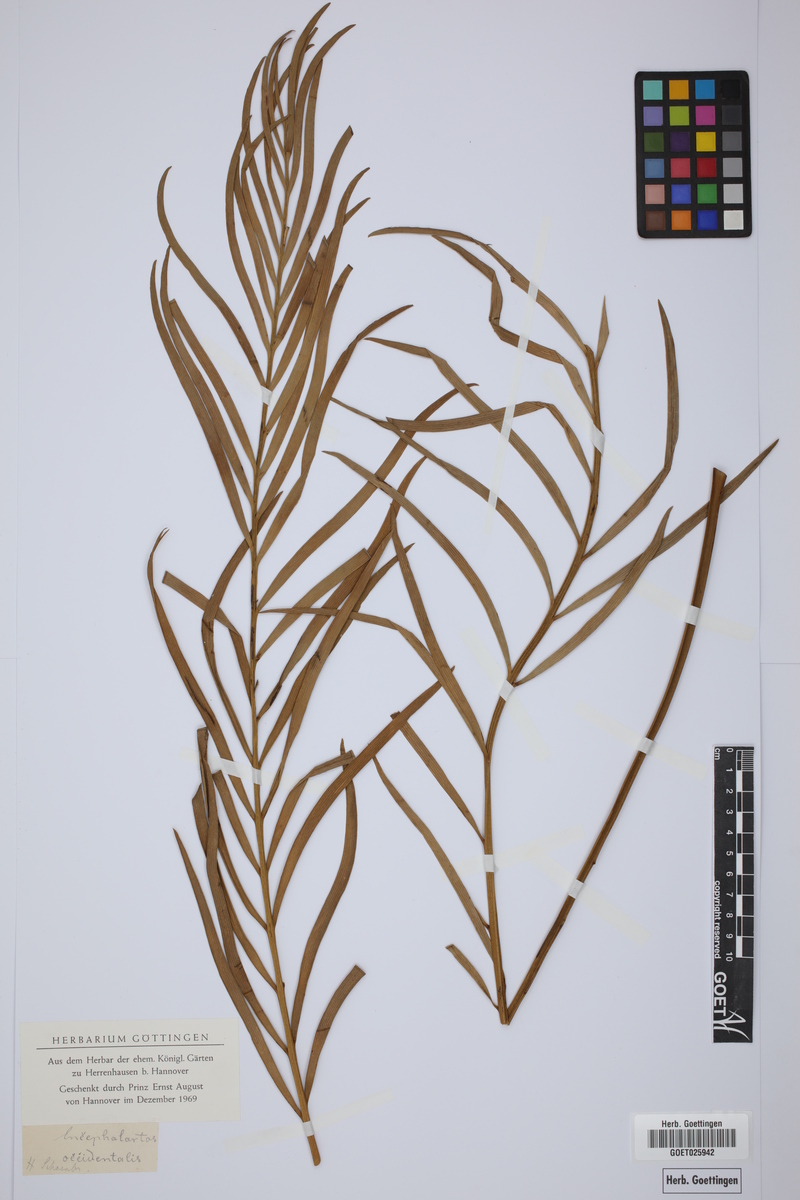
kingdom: Plantae
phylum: Tracheophyta
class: Cycadopsida
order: Cycadales
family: Zamiaceae
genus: Encephalartos
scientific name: Encephalartos
